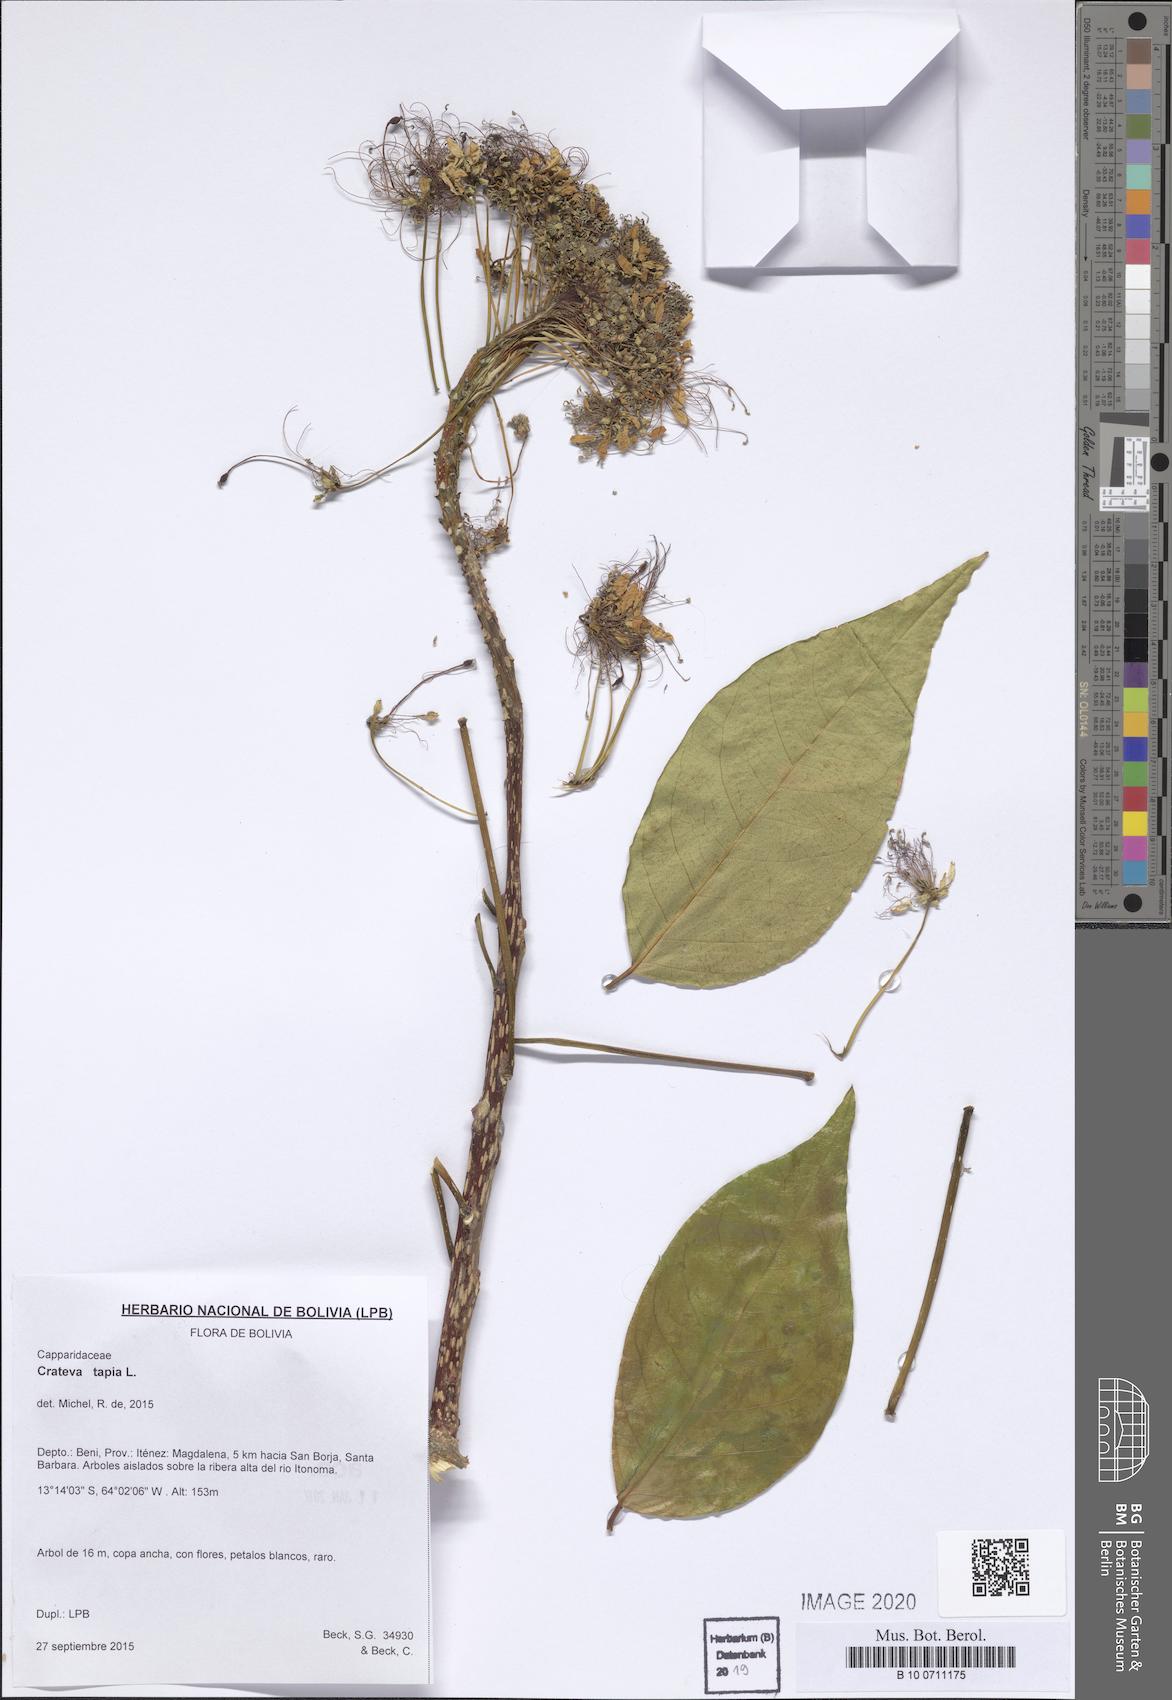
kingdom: Plantae
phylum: Tracheophyta
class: Magnoliopsida
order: Brassicales
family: Capparaceae
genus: Crateva
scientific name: Crateva tapia
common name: Garlic-pear
